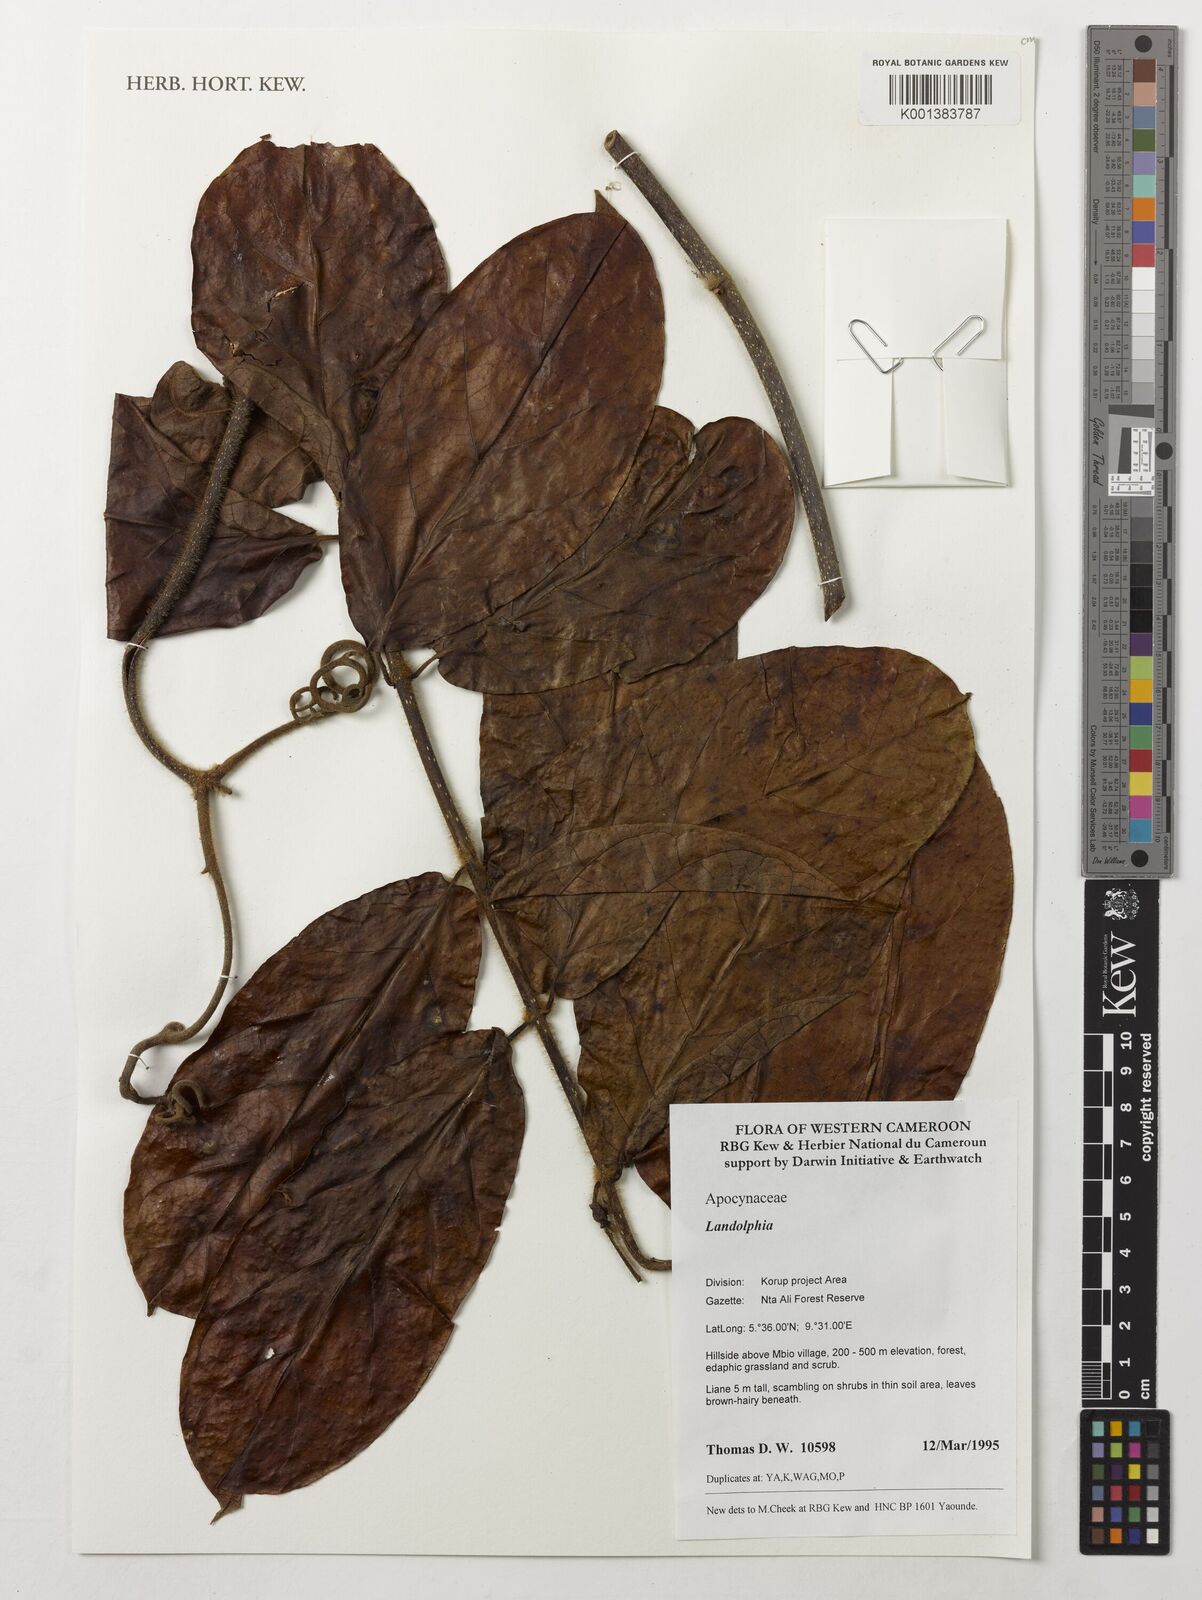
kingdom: Plantae
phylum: Tracheophyta
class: Magnoliopsida
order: Gentianales
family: Apocynaceae
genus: Landolphia
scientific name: Landolphia
